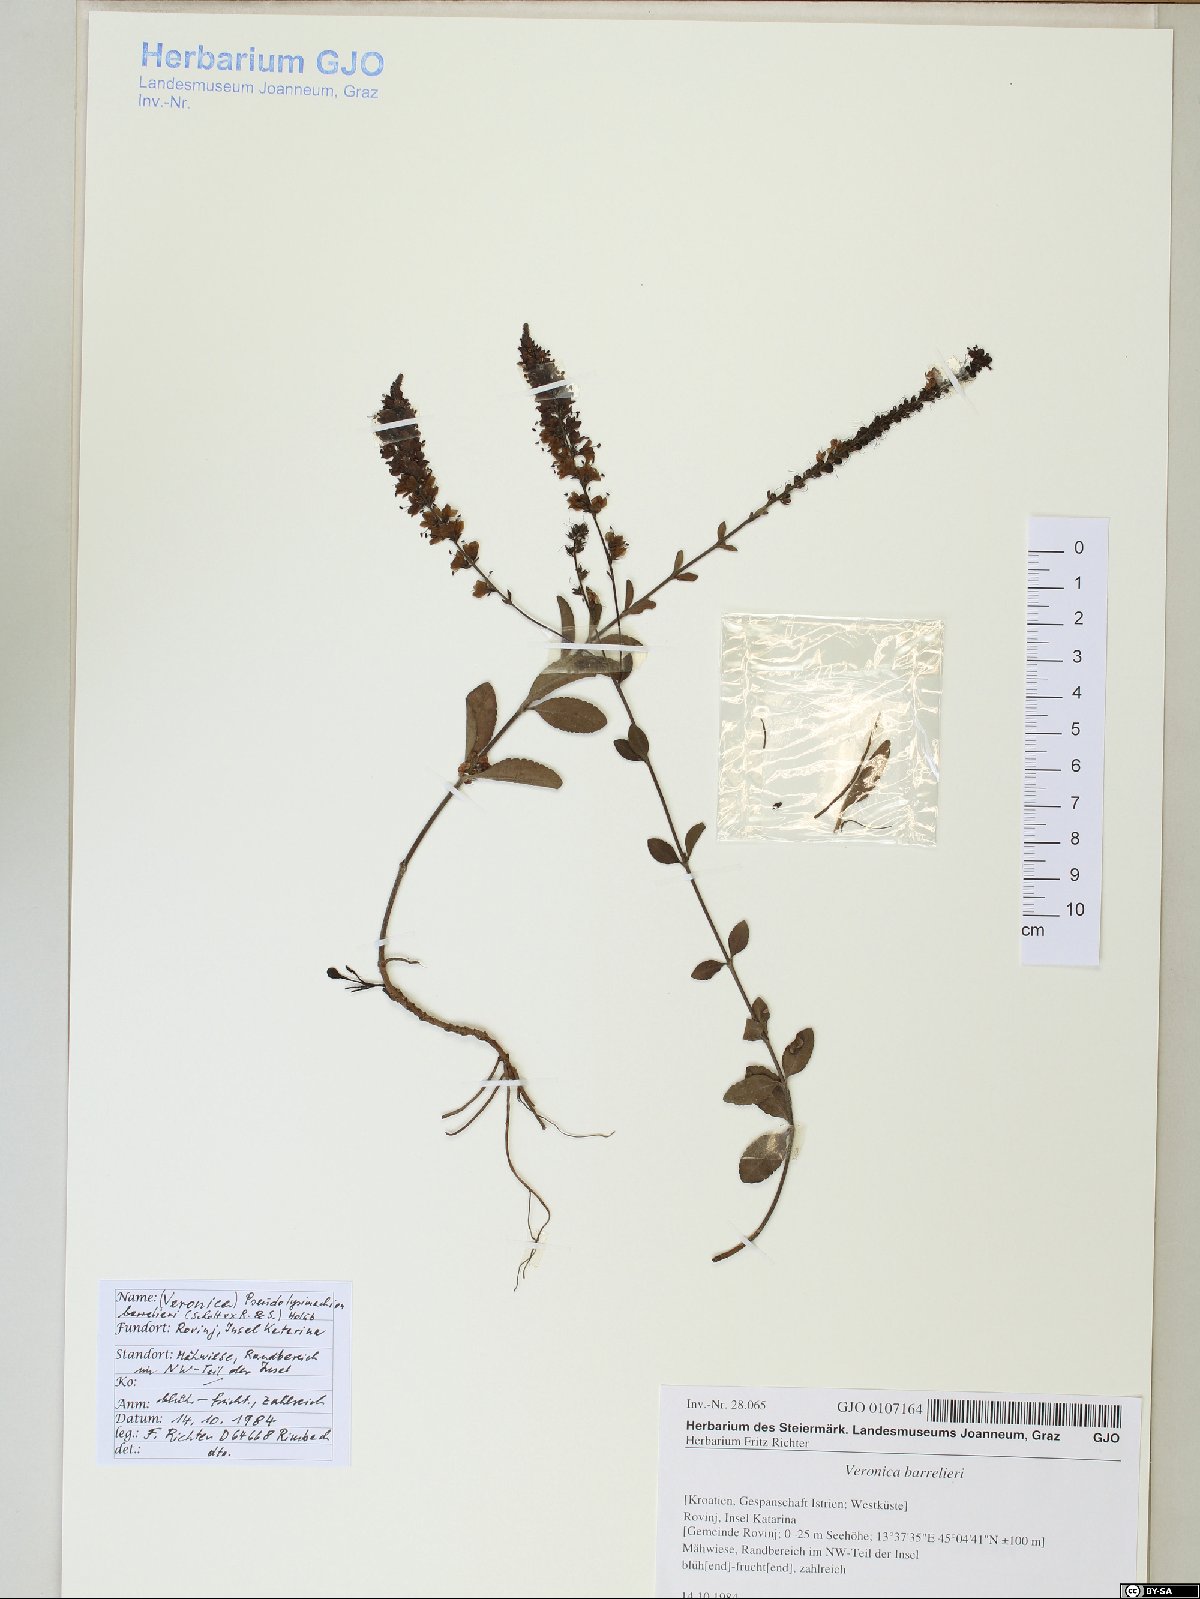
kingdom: Plantae
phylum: Tracheophyta
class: Magnoliopsida
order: Lamiales
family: Plantaginaceae
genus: Veronica
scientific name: Veronica barrelieri
